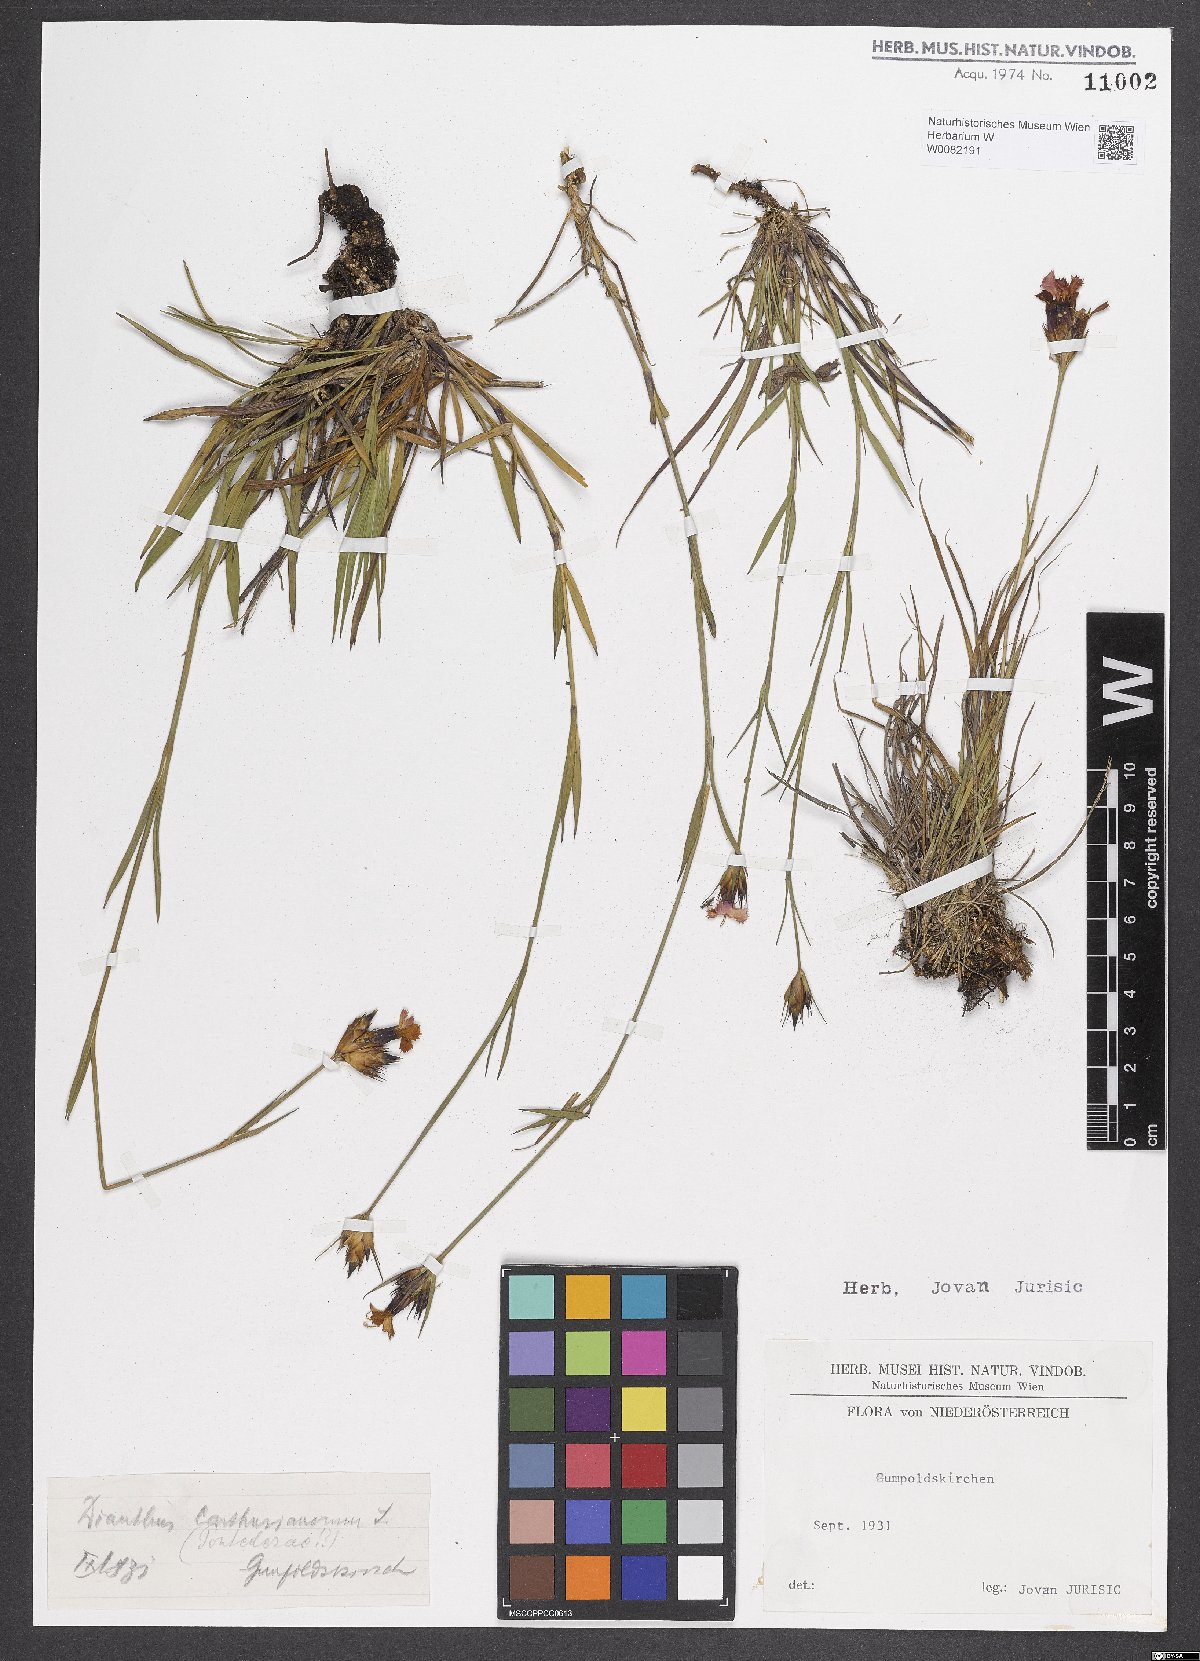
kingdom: Plantae
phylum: Tracheophyta
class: Magnoliopsida
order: Brassicales
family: Brassicaceae
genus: Alyssum
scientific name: Alyssum alyssoides
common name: Small alison
